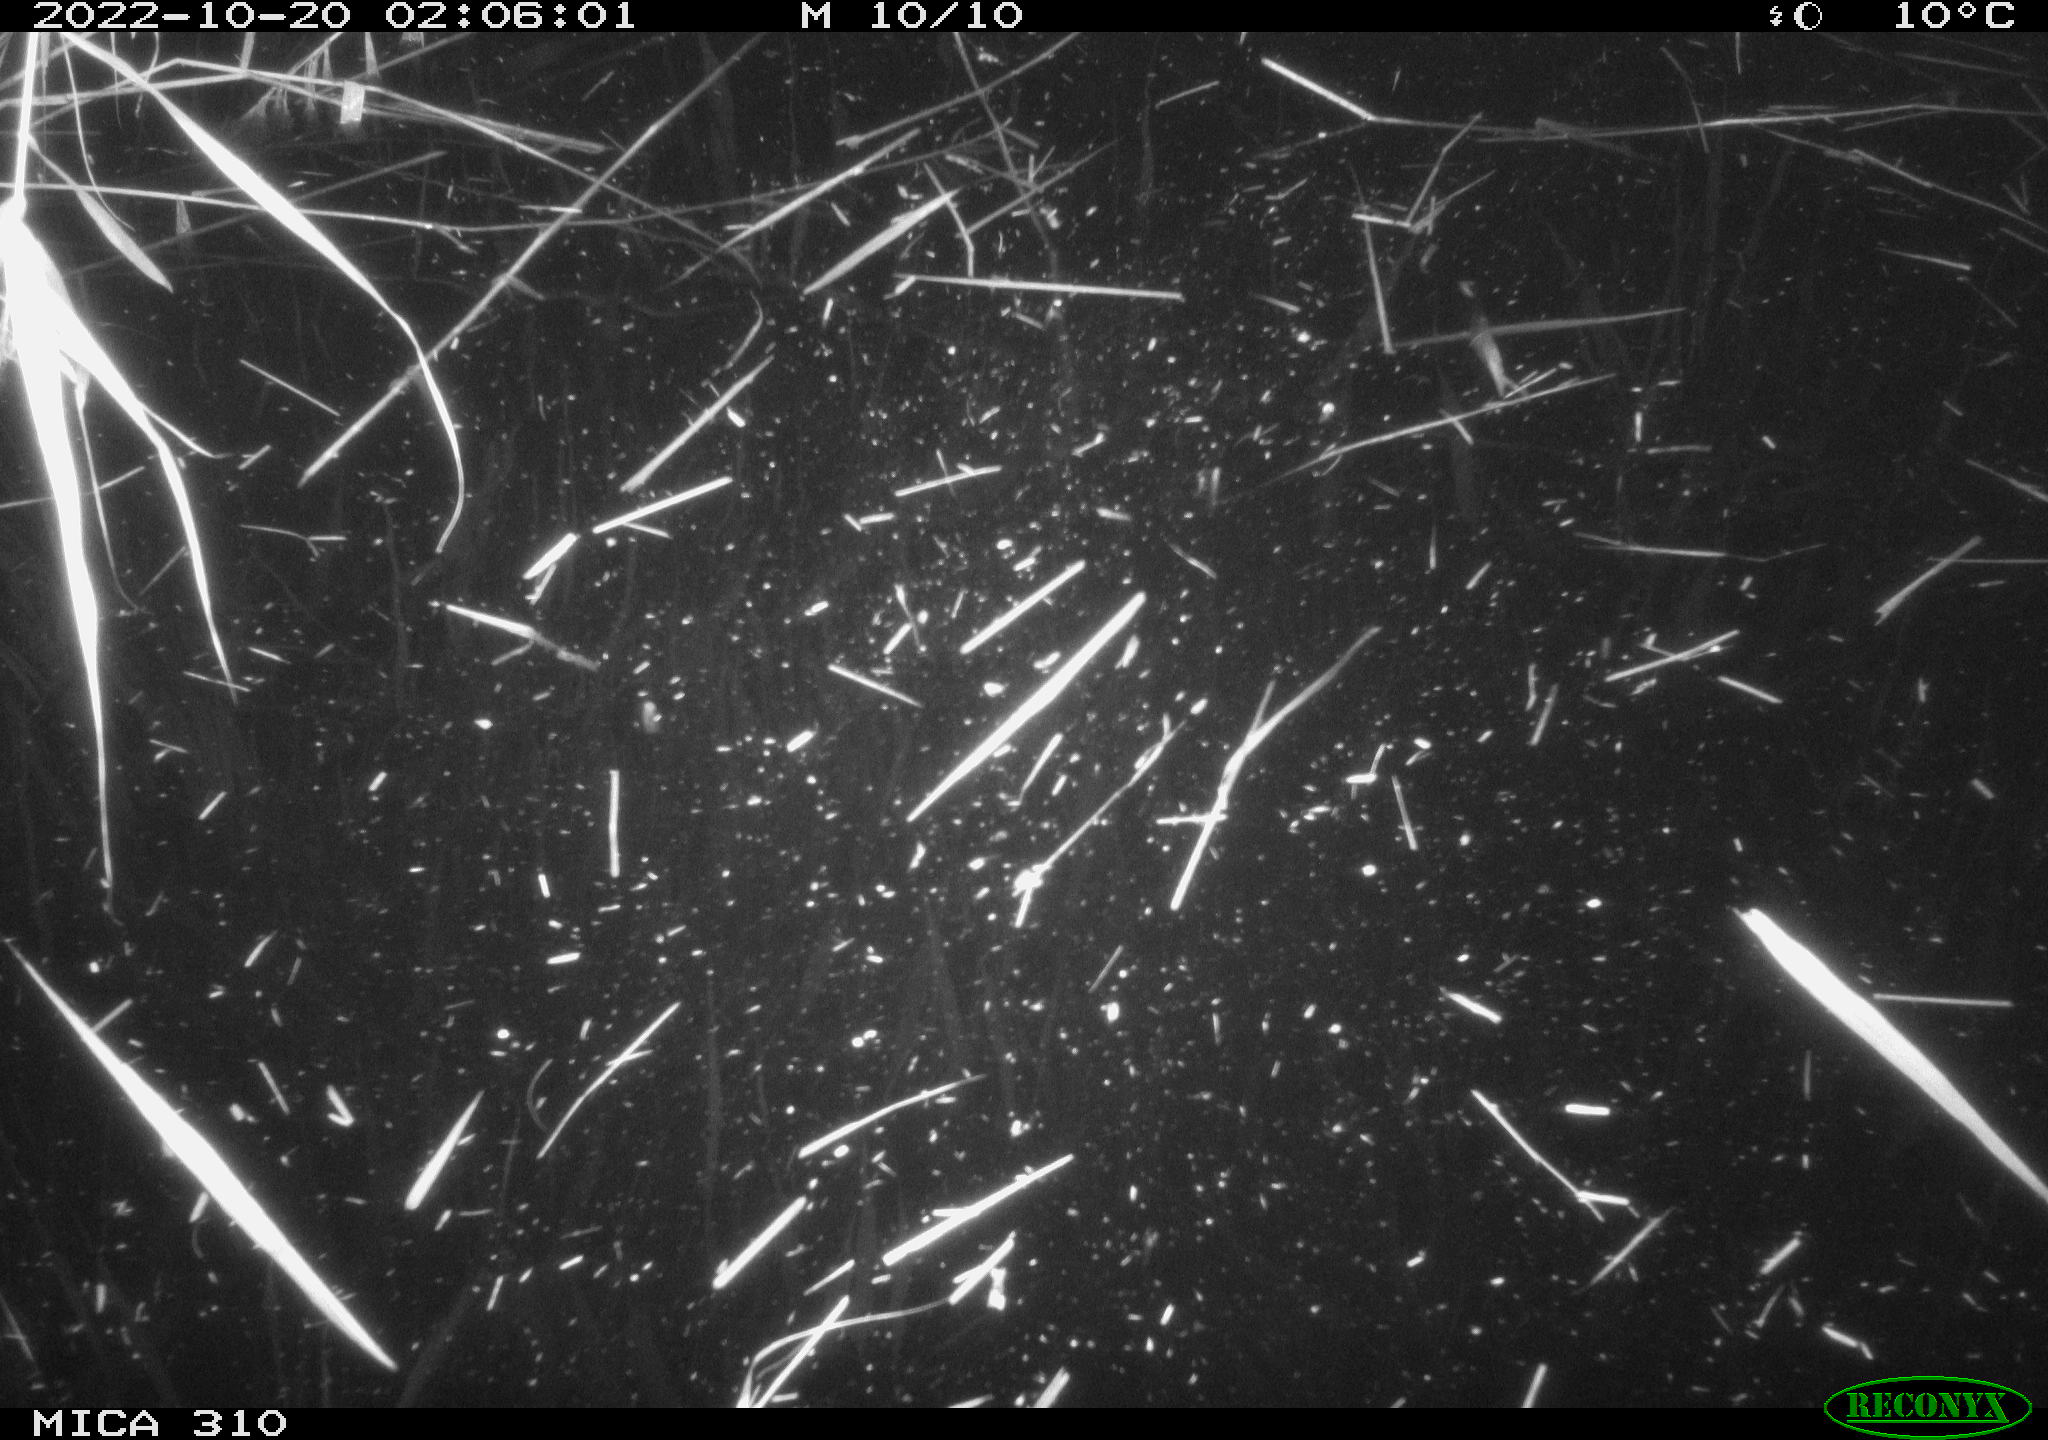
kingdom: Animalia
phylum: Chordata
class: Mammalia
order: Rodentia
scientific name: Rodentia
